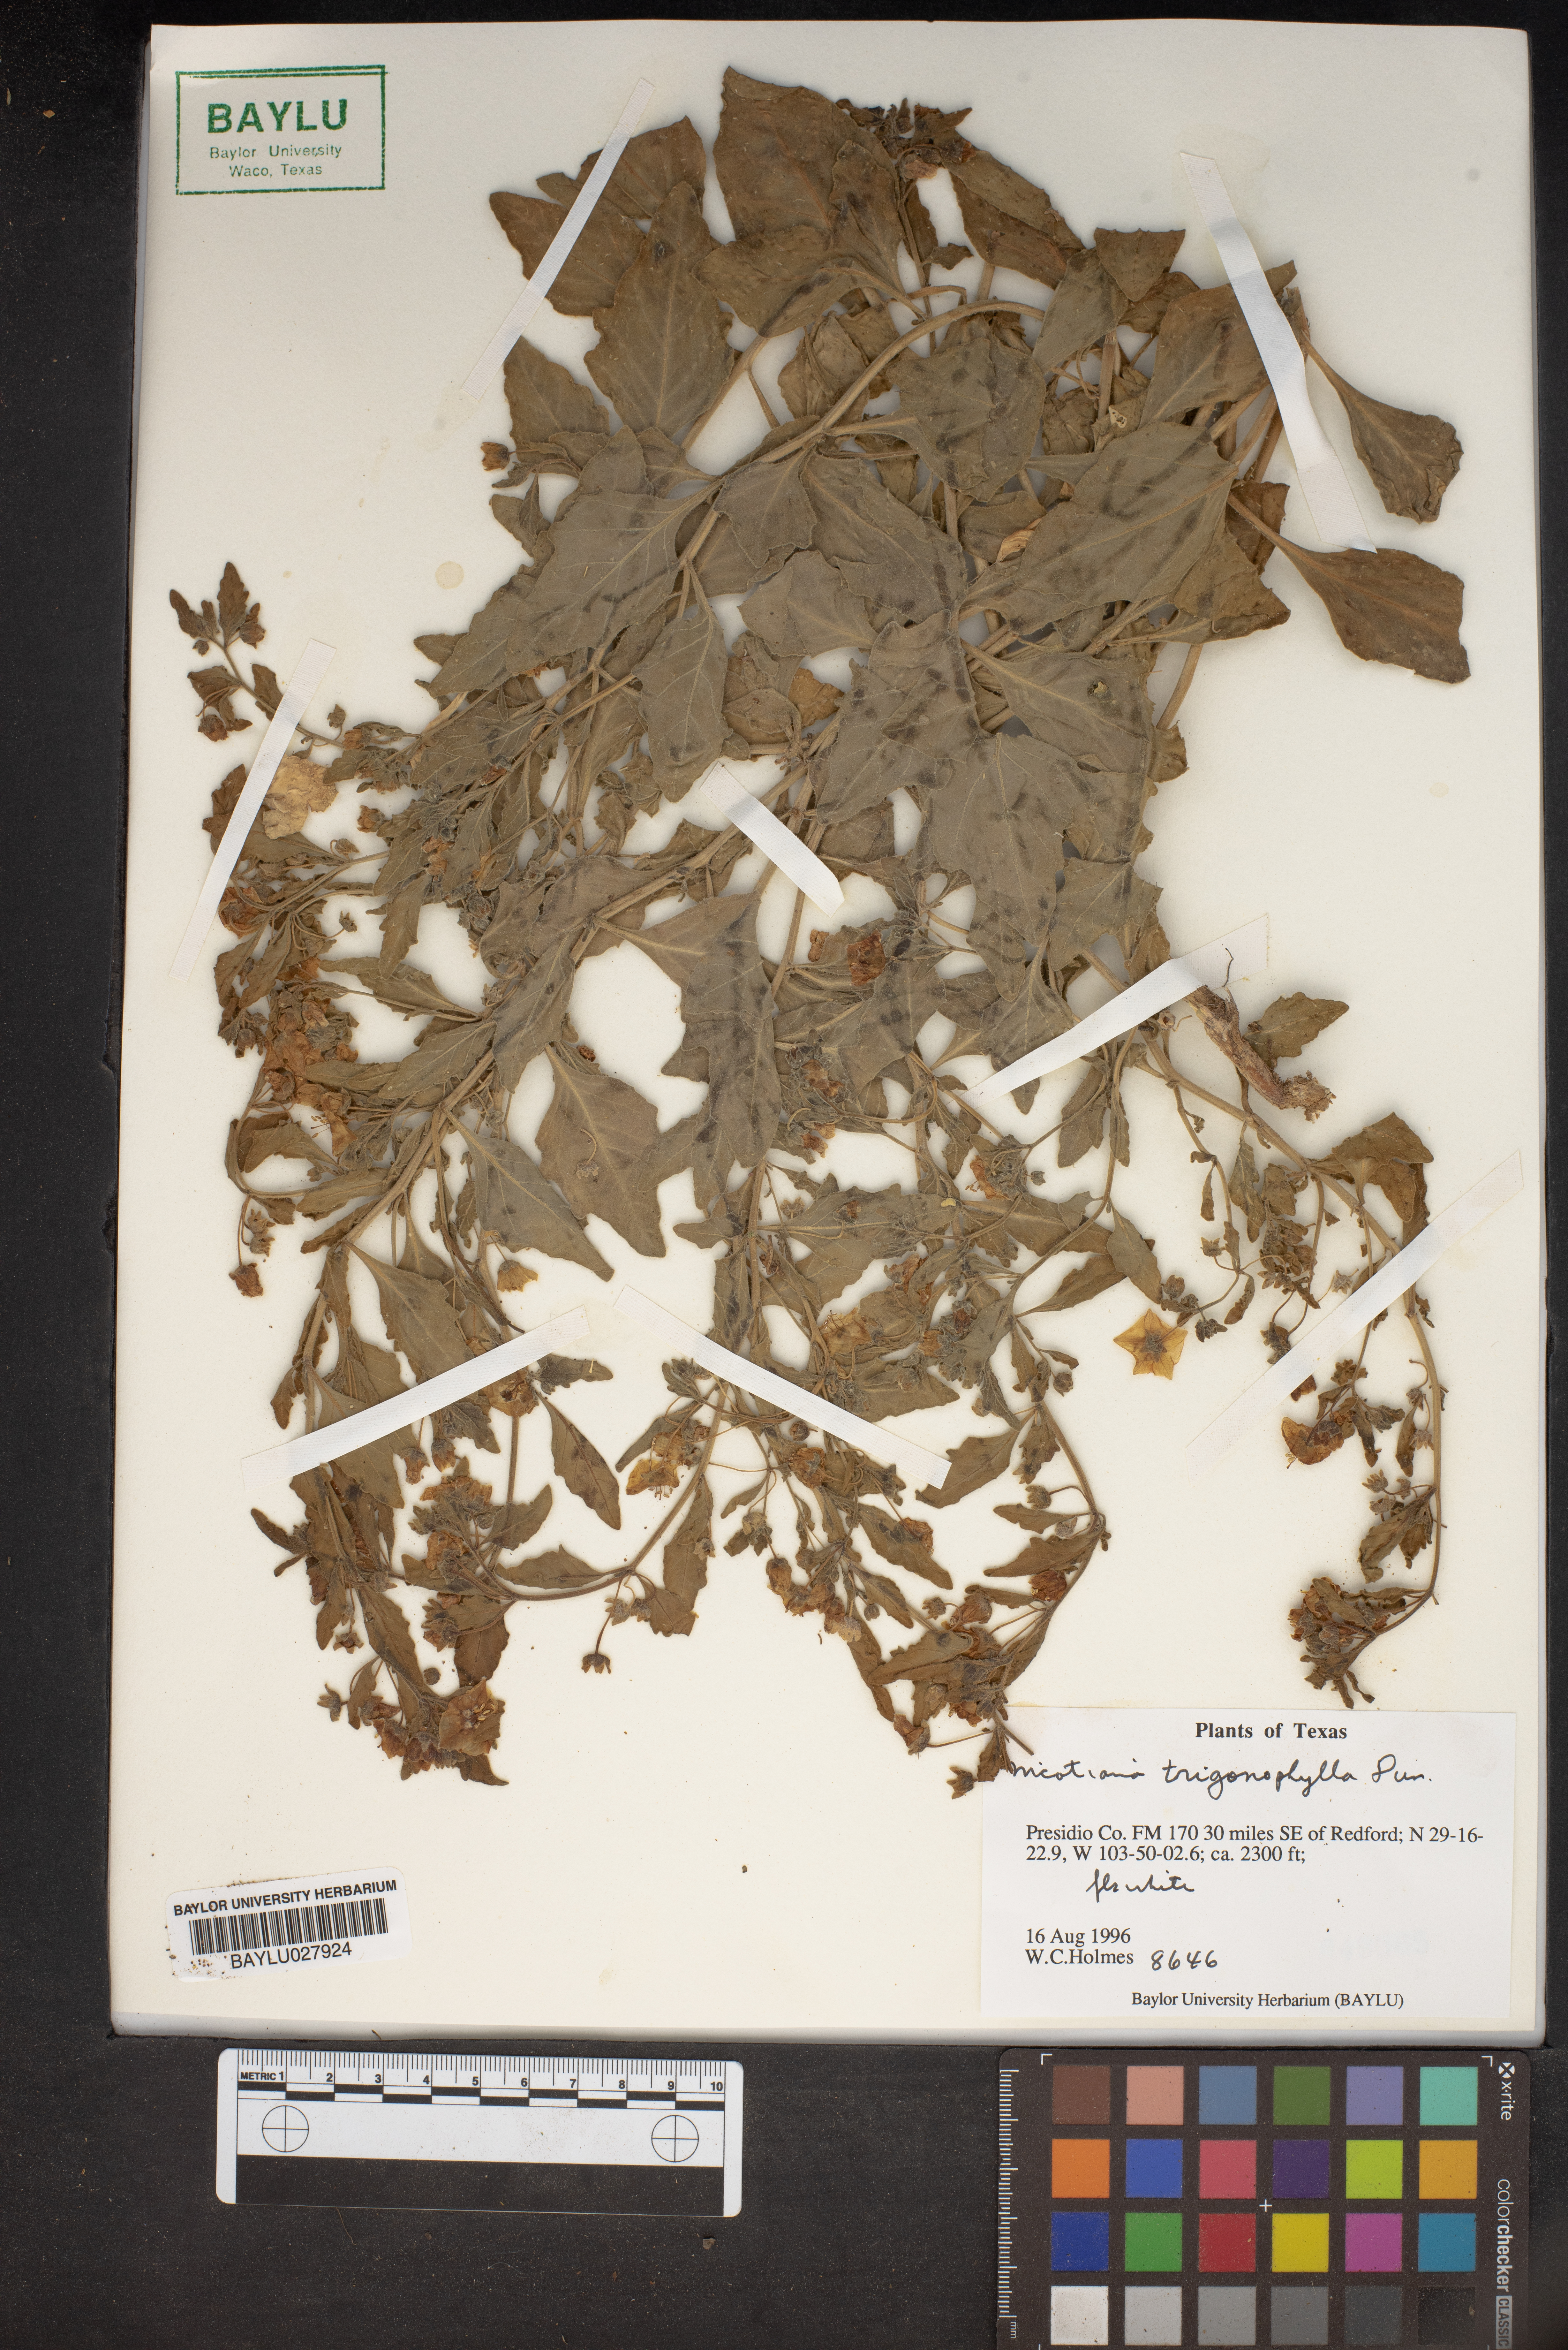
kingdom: Plantae
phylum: Tracheophyta
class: Magnoliopsida
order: Solanales
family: Solanaceae
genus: Nicotiana
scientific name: Nicotiana obtusifolia
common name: Desert tobacco
